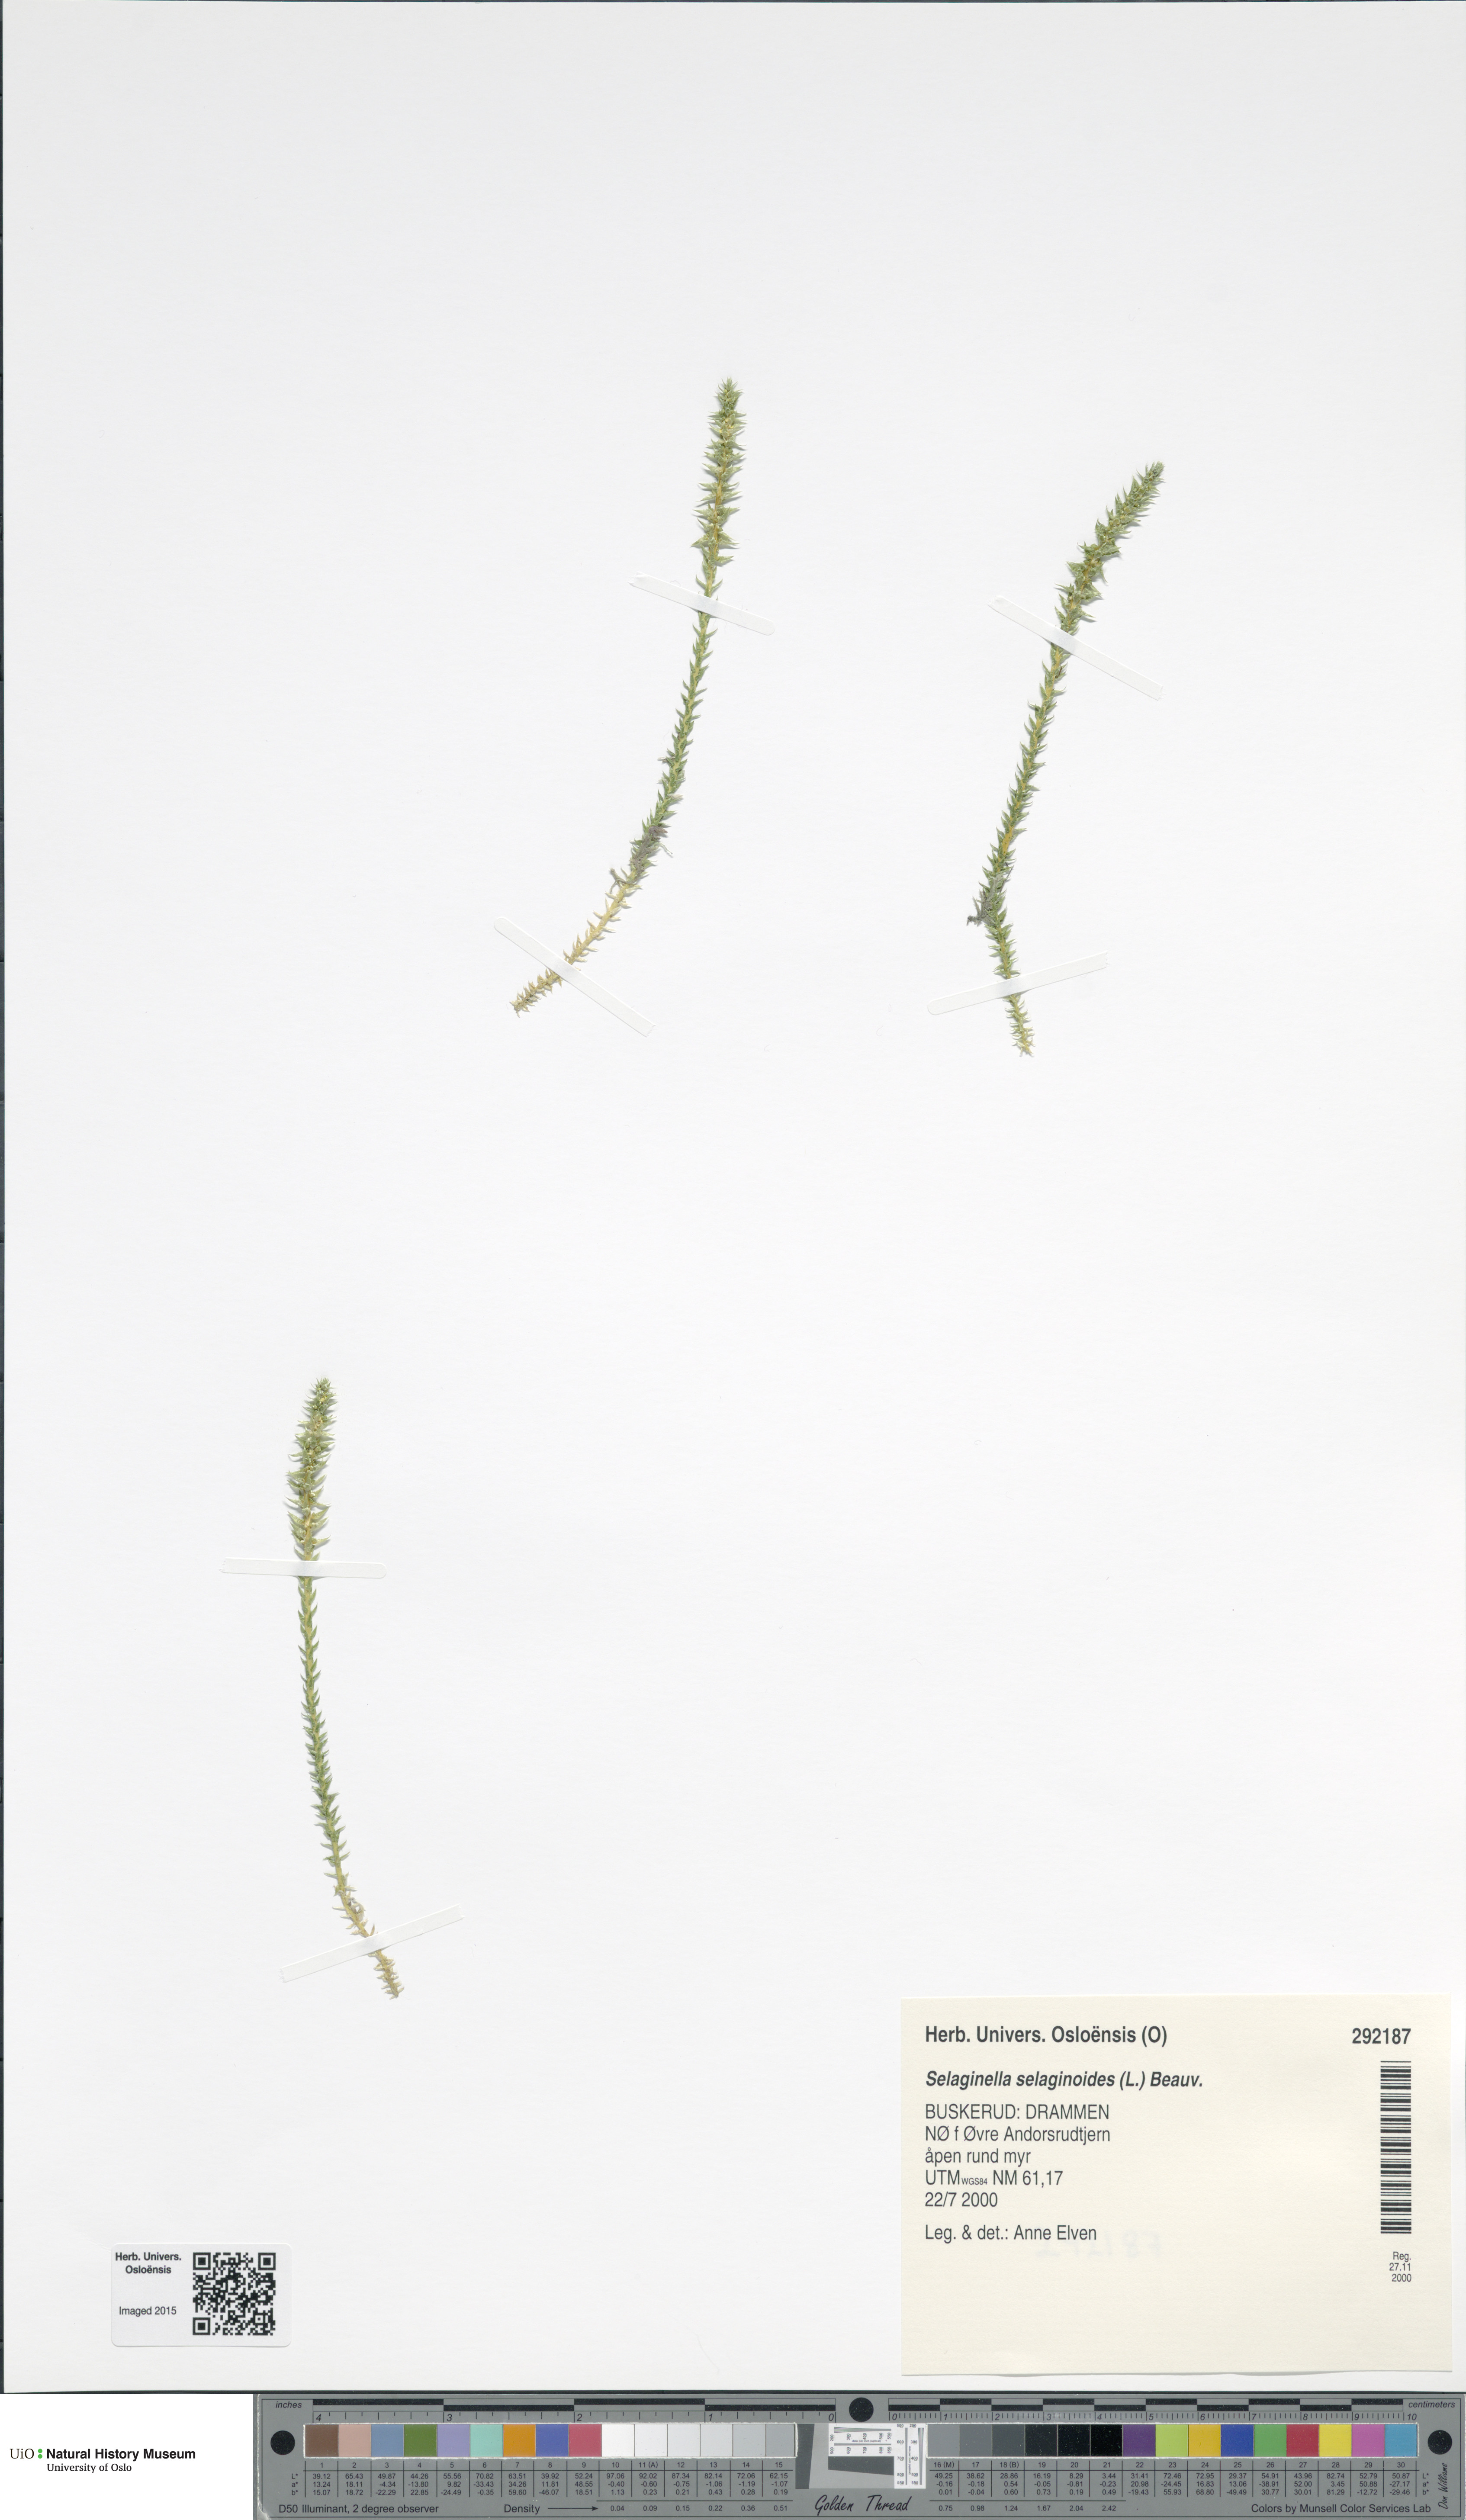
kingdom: Plantae
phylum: Tracheophyta
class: Lycopodiopsida
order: Selaginellales
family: Selaginellaceae
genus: Selaginella
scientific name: Selaginella selaginoides
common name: Prickly mountain-moss
